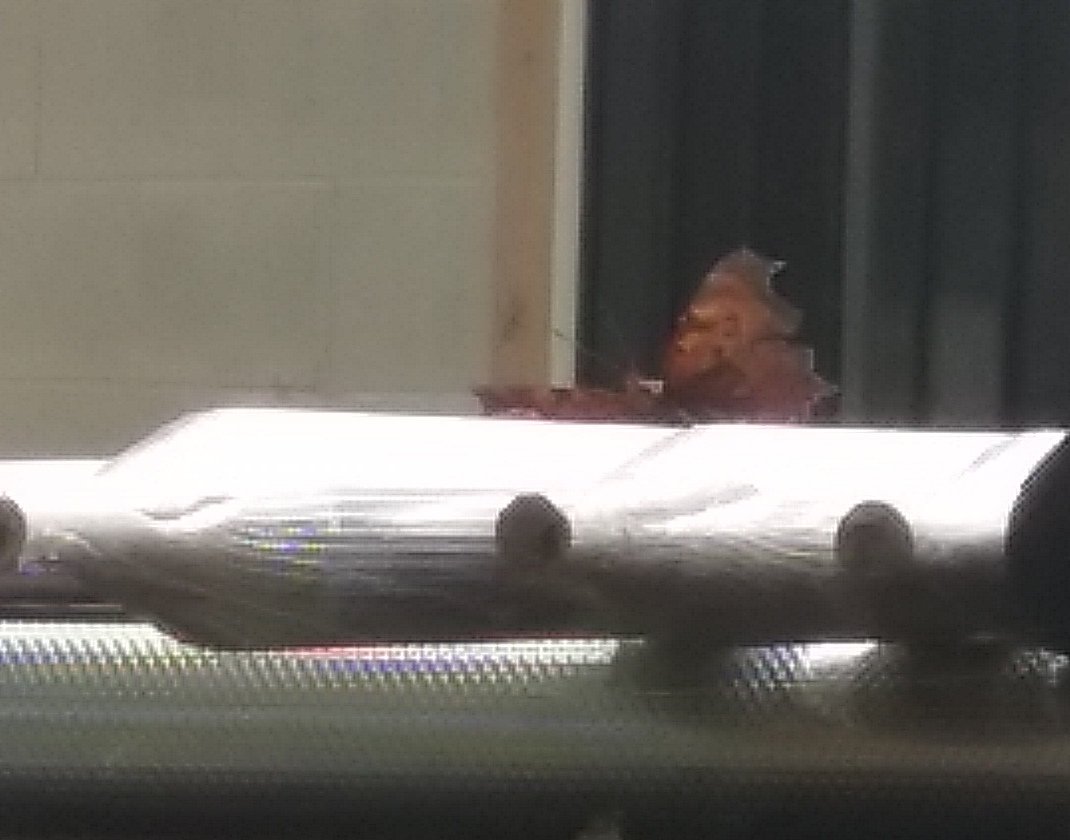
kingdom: Animalia
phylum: Arthropoda
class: Insecta
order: Lepidoptera
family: Nymphalidae
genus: Polygonia
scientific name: Polygonia interrogationis
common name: Question Mark
